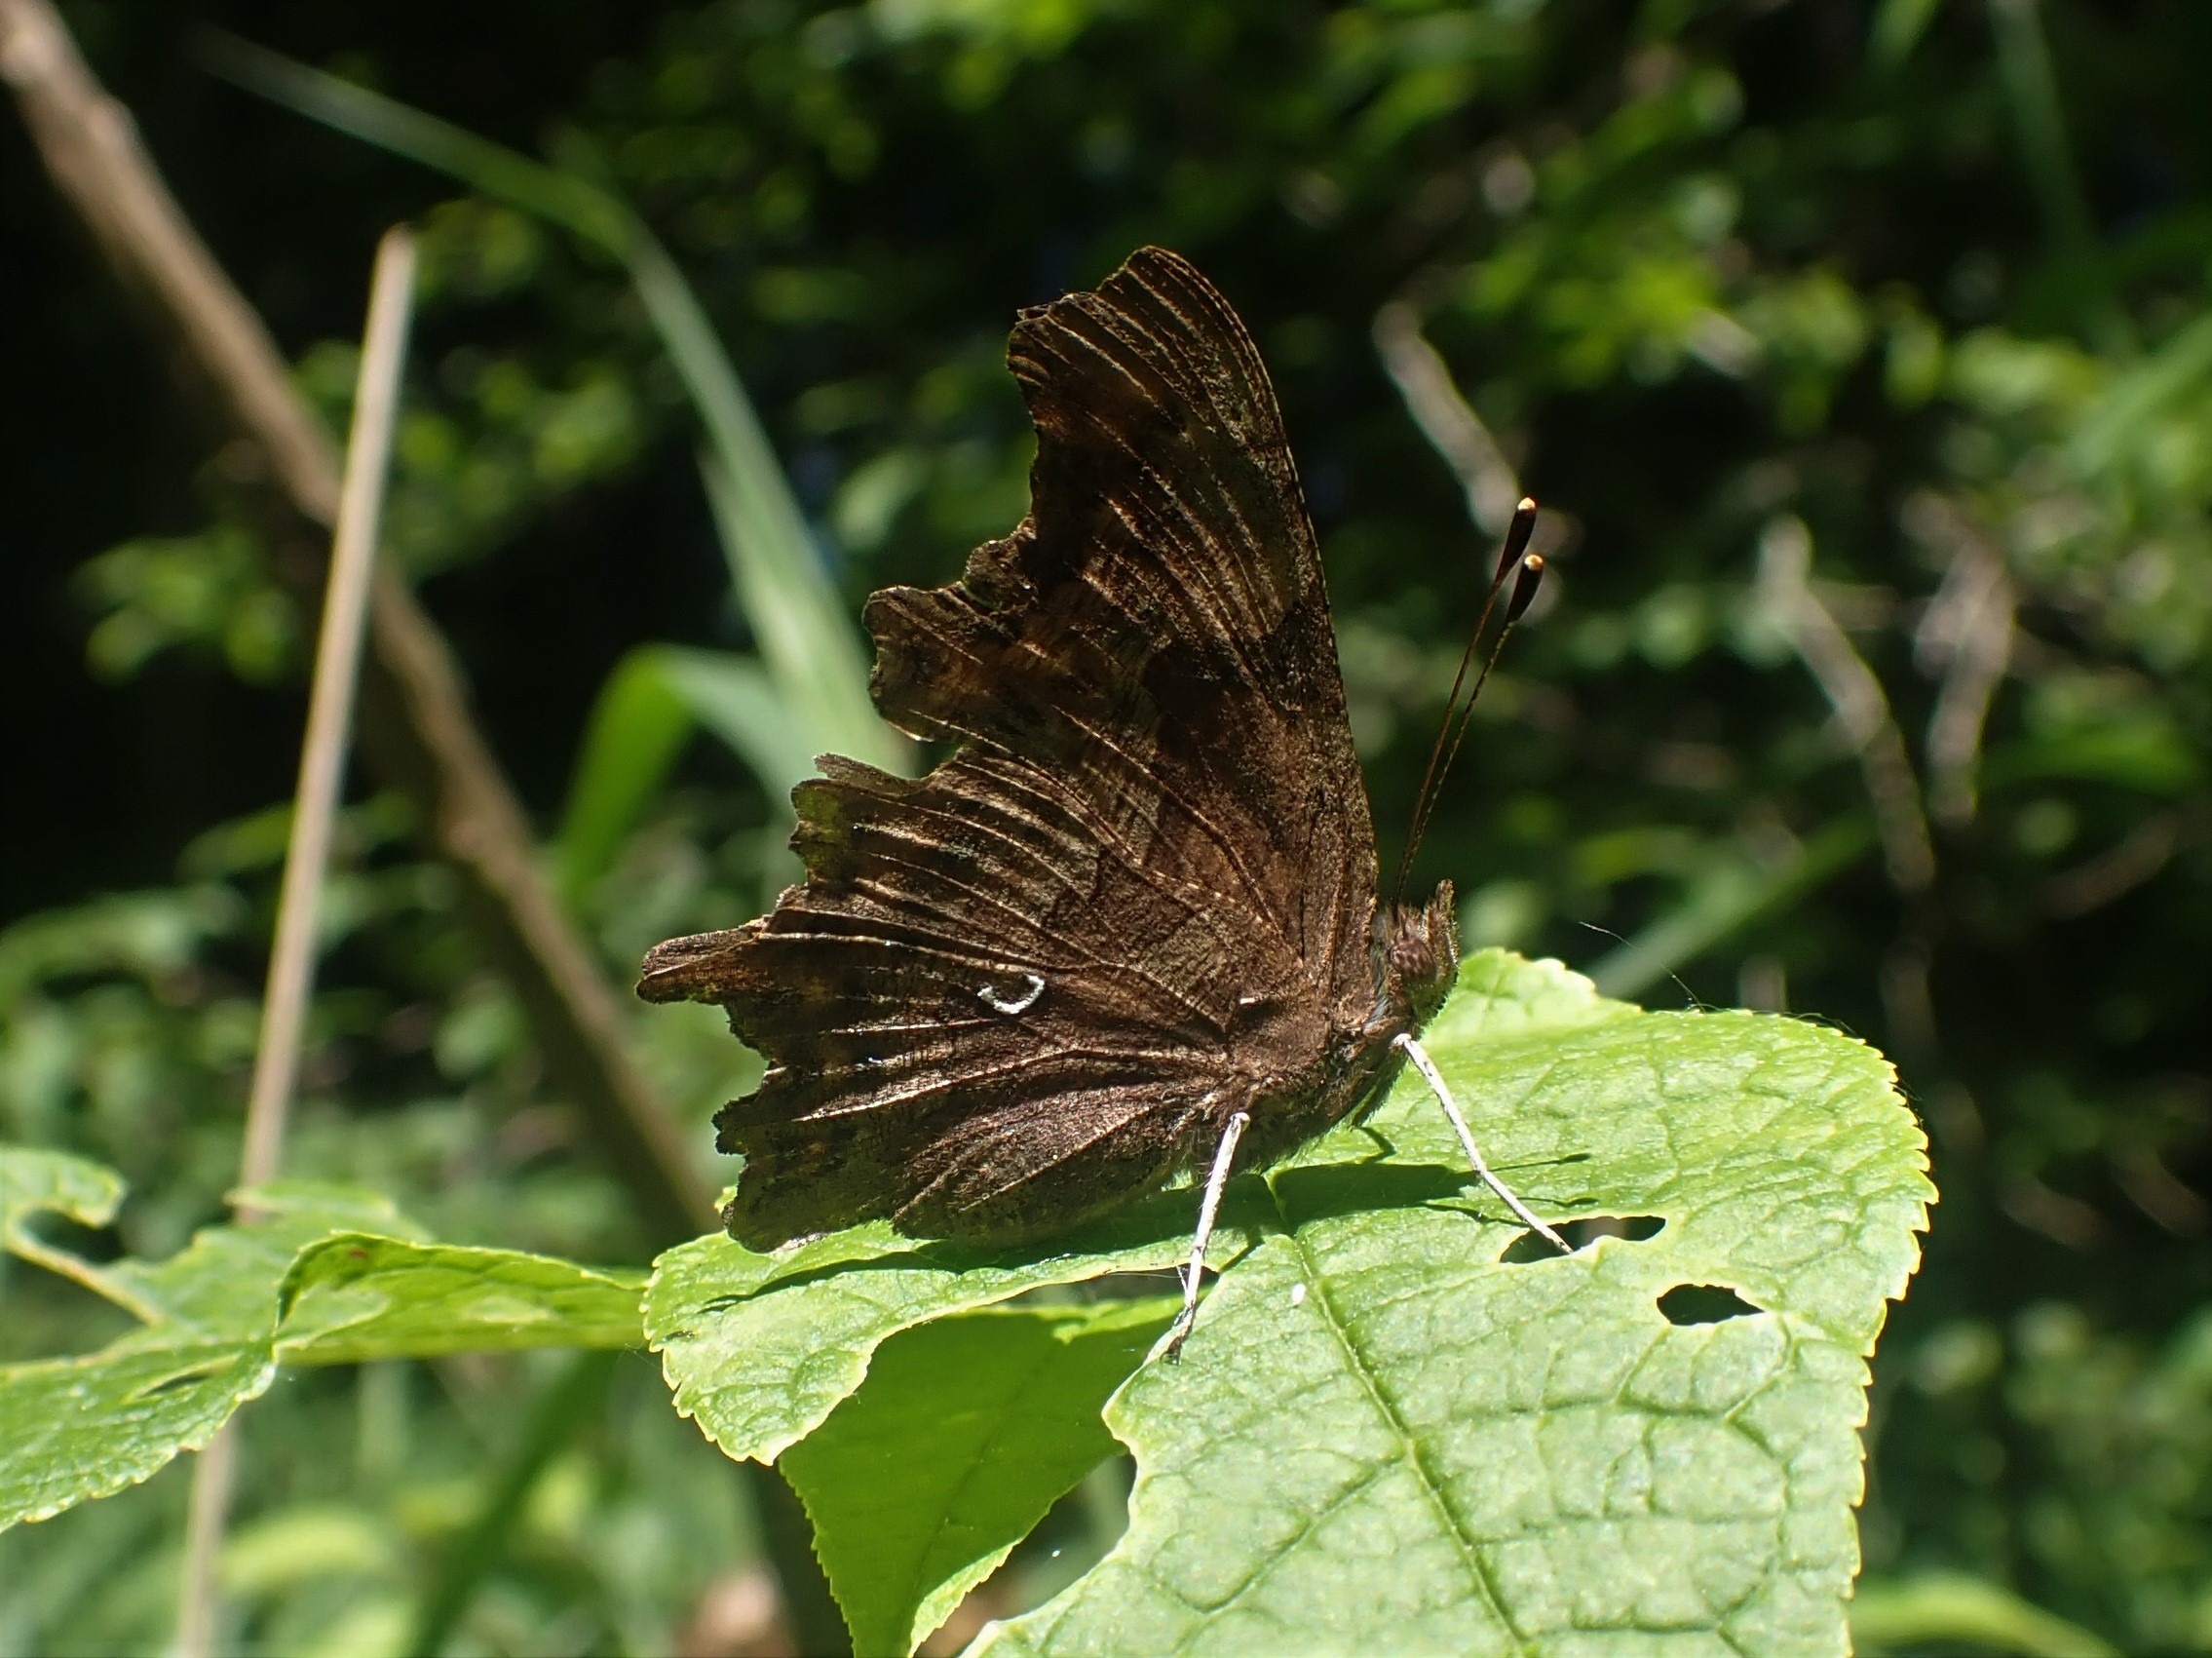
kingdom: Animalia
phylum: Arthropoda
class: Insecta
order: Lepidoptera
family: Nymphalidae
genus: Polygonia
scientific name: Polygonia c-album
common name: Det hvide C
